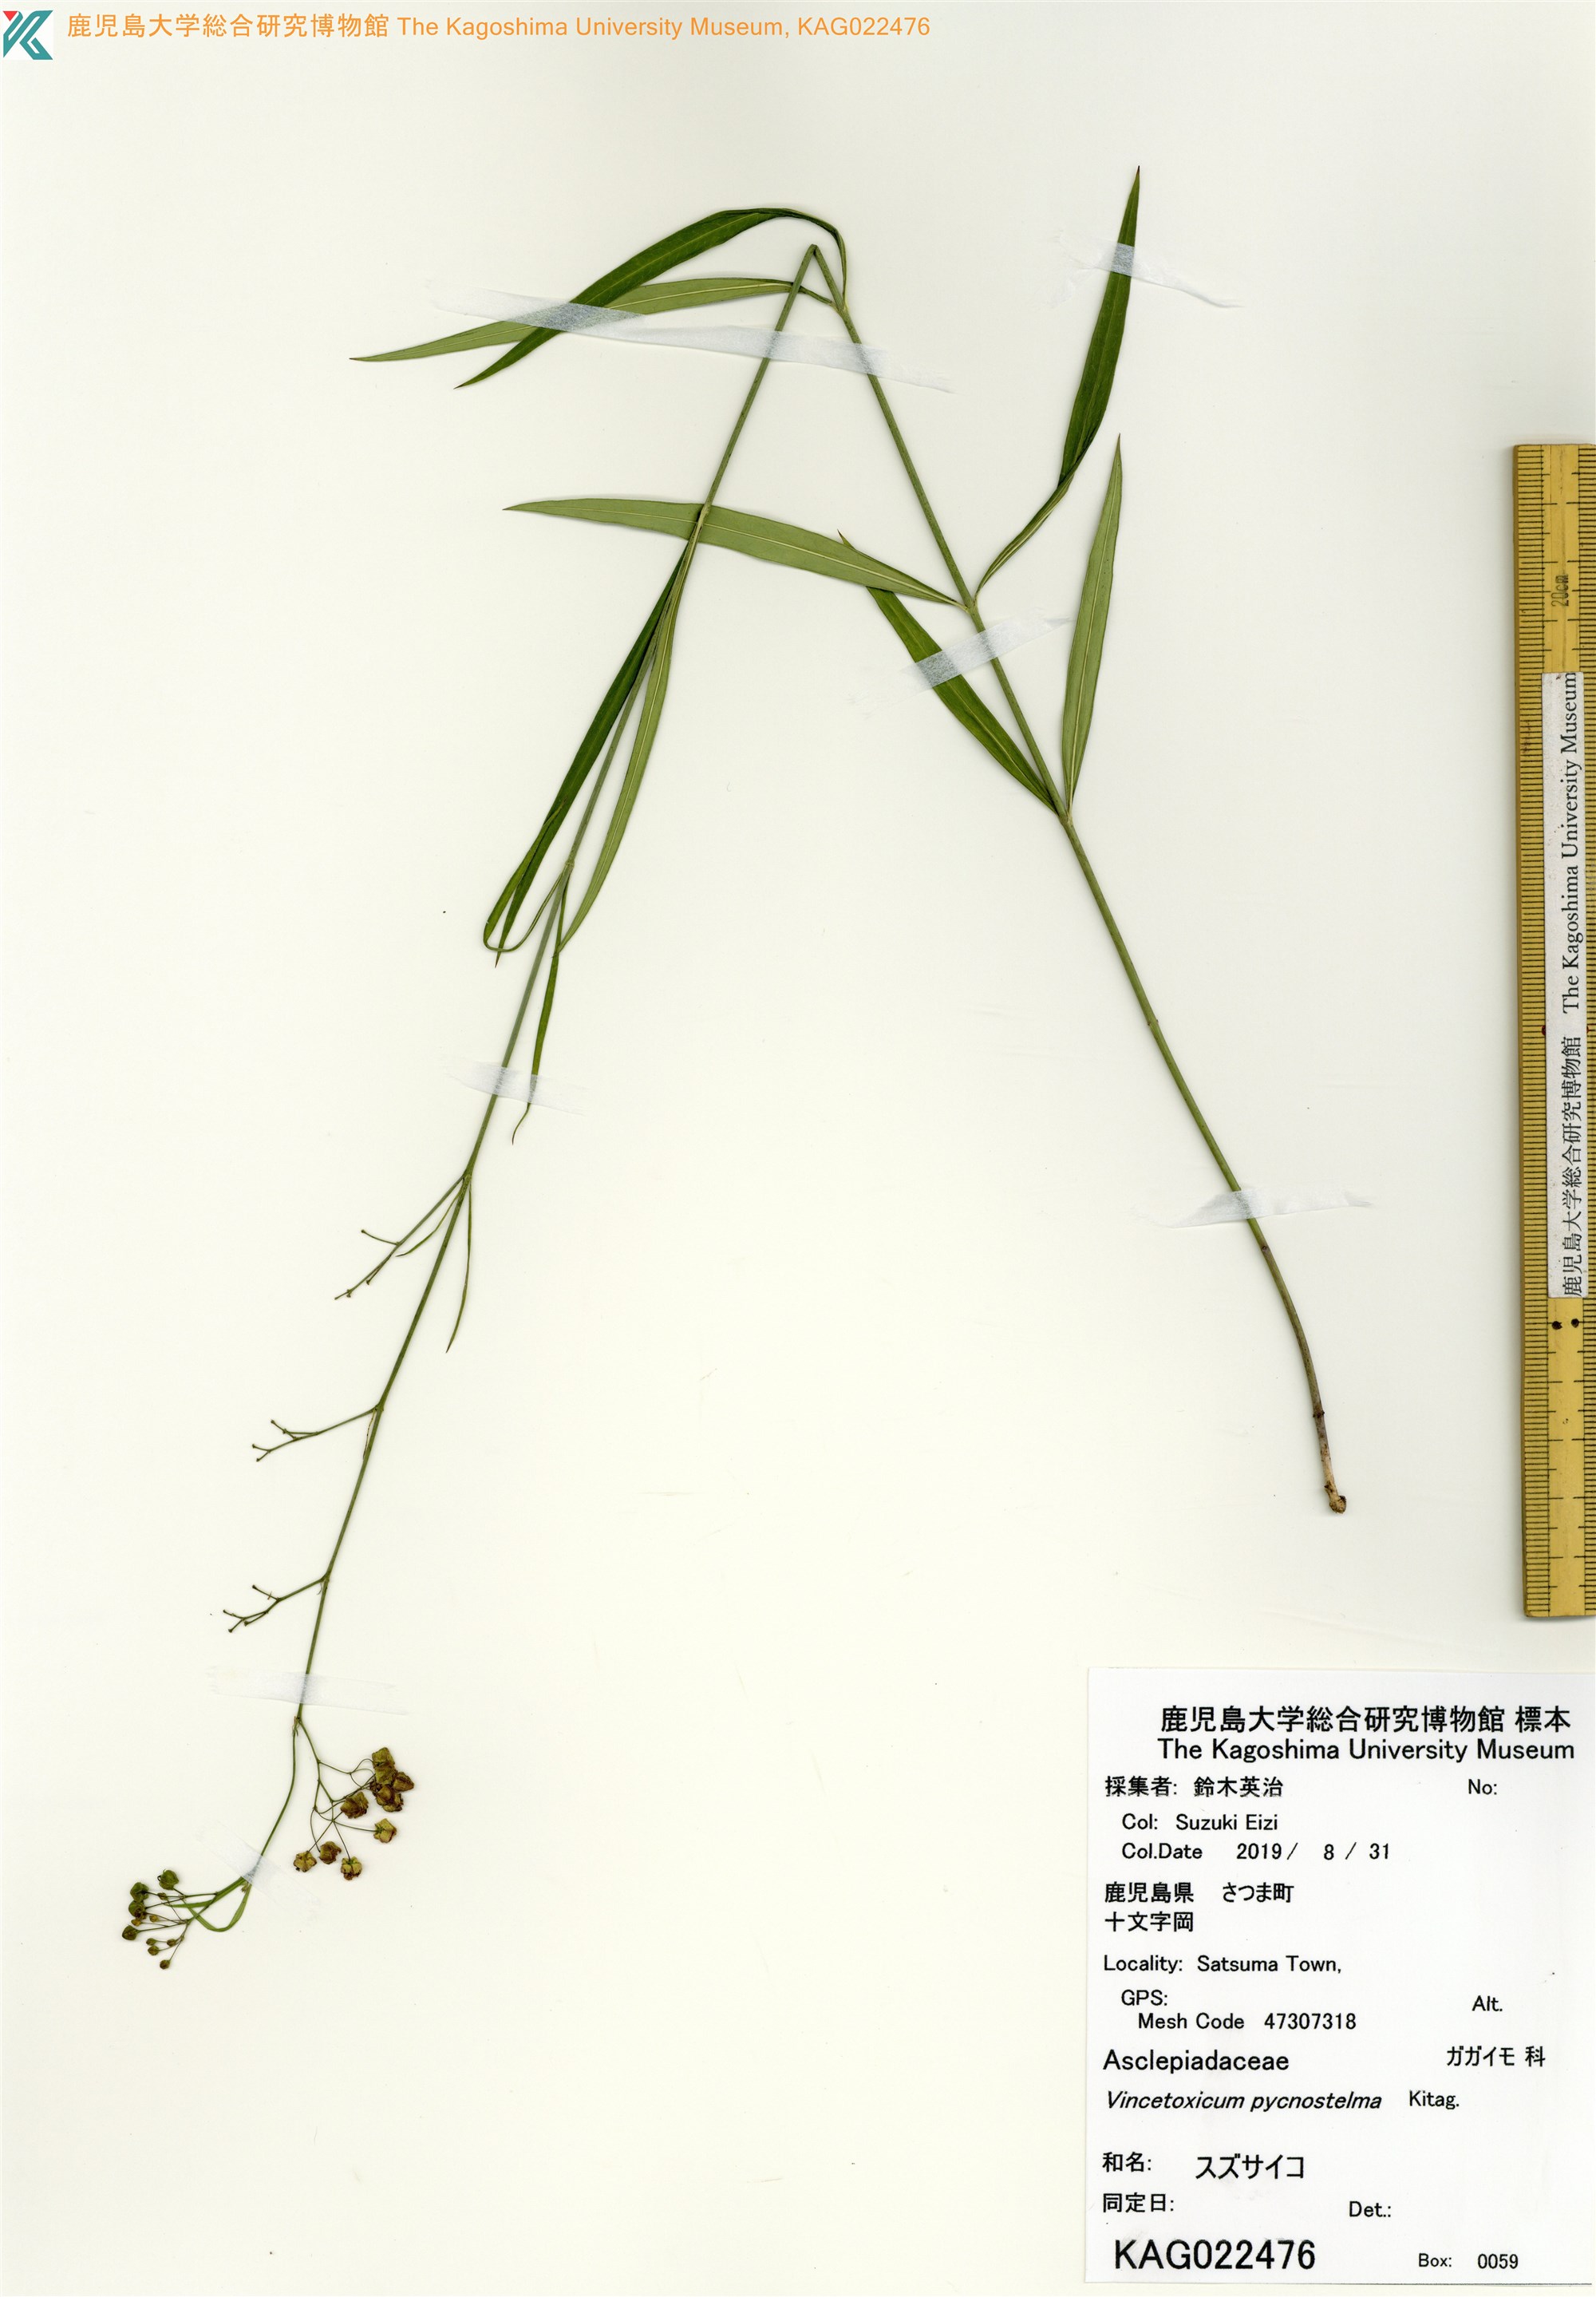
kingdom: Plantae
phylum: Tracheophyta
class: Magnoliopsida
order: Gentianales
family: Apocynaceae
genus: Vincetoxicum
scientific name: Vincetoxicum mukdenense
